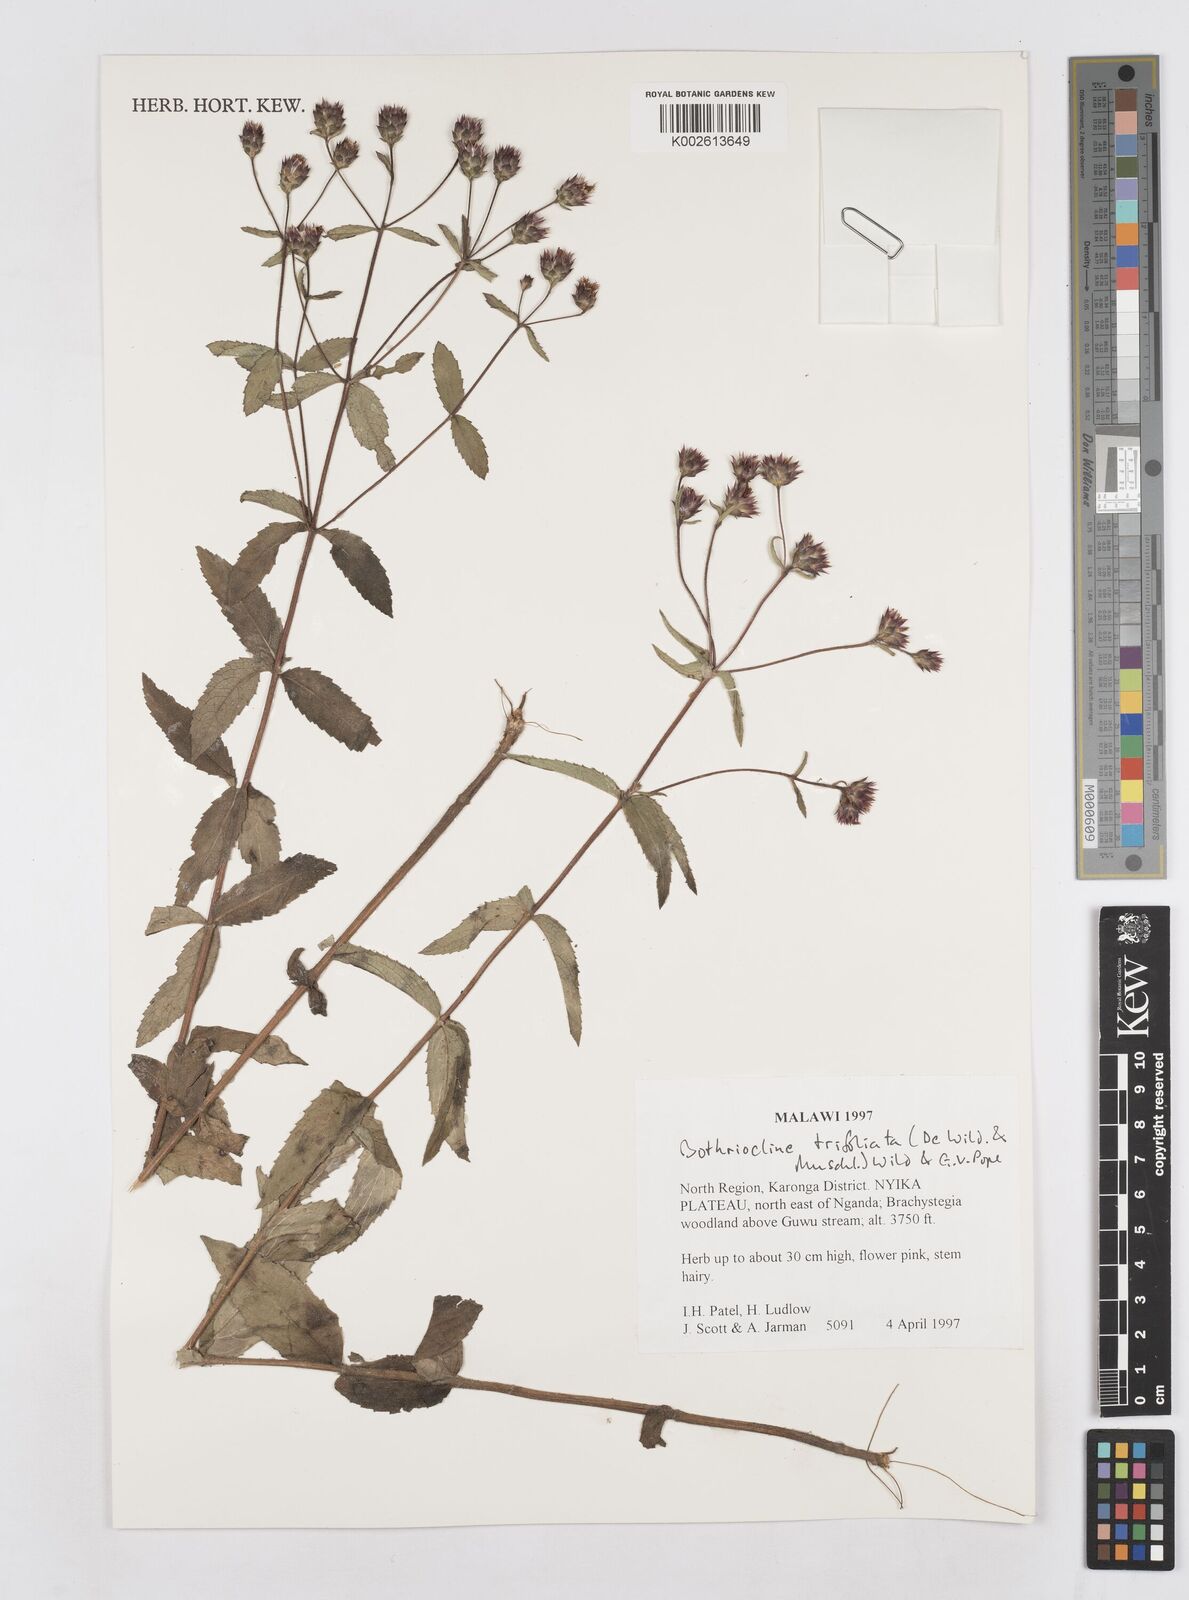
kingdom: Plantae
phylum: Tracheophyta
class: Magnoliopsida
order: Asterales
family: Asteraceae
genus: Bothriocline
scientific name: Bothriocline trifoliata
